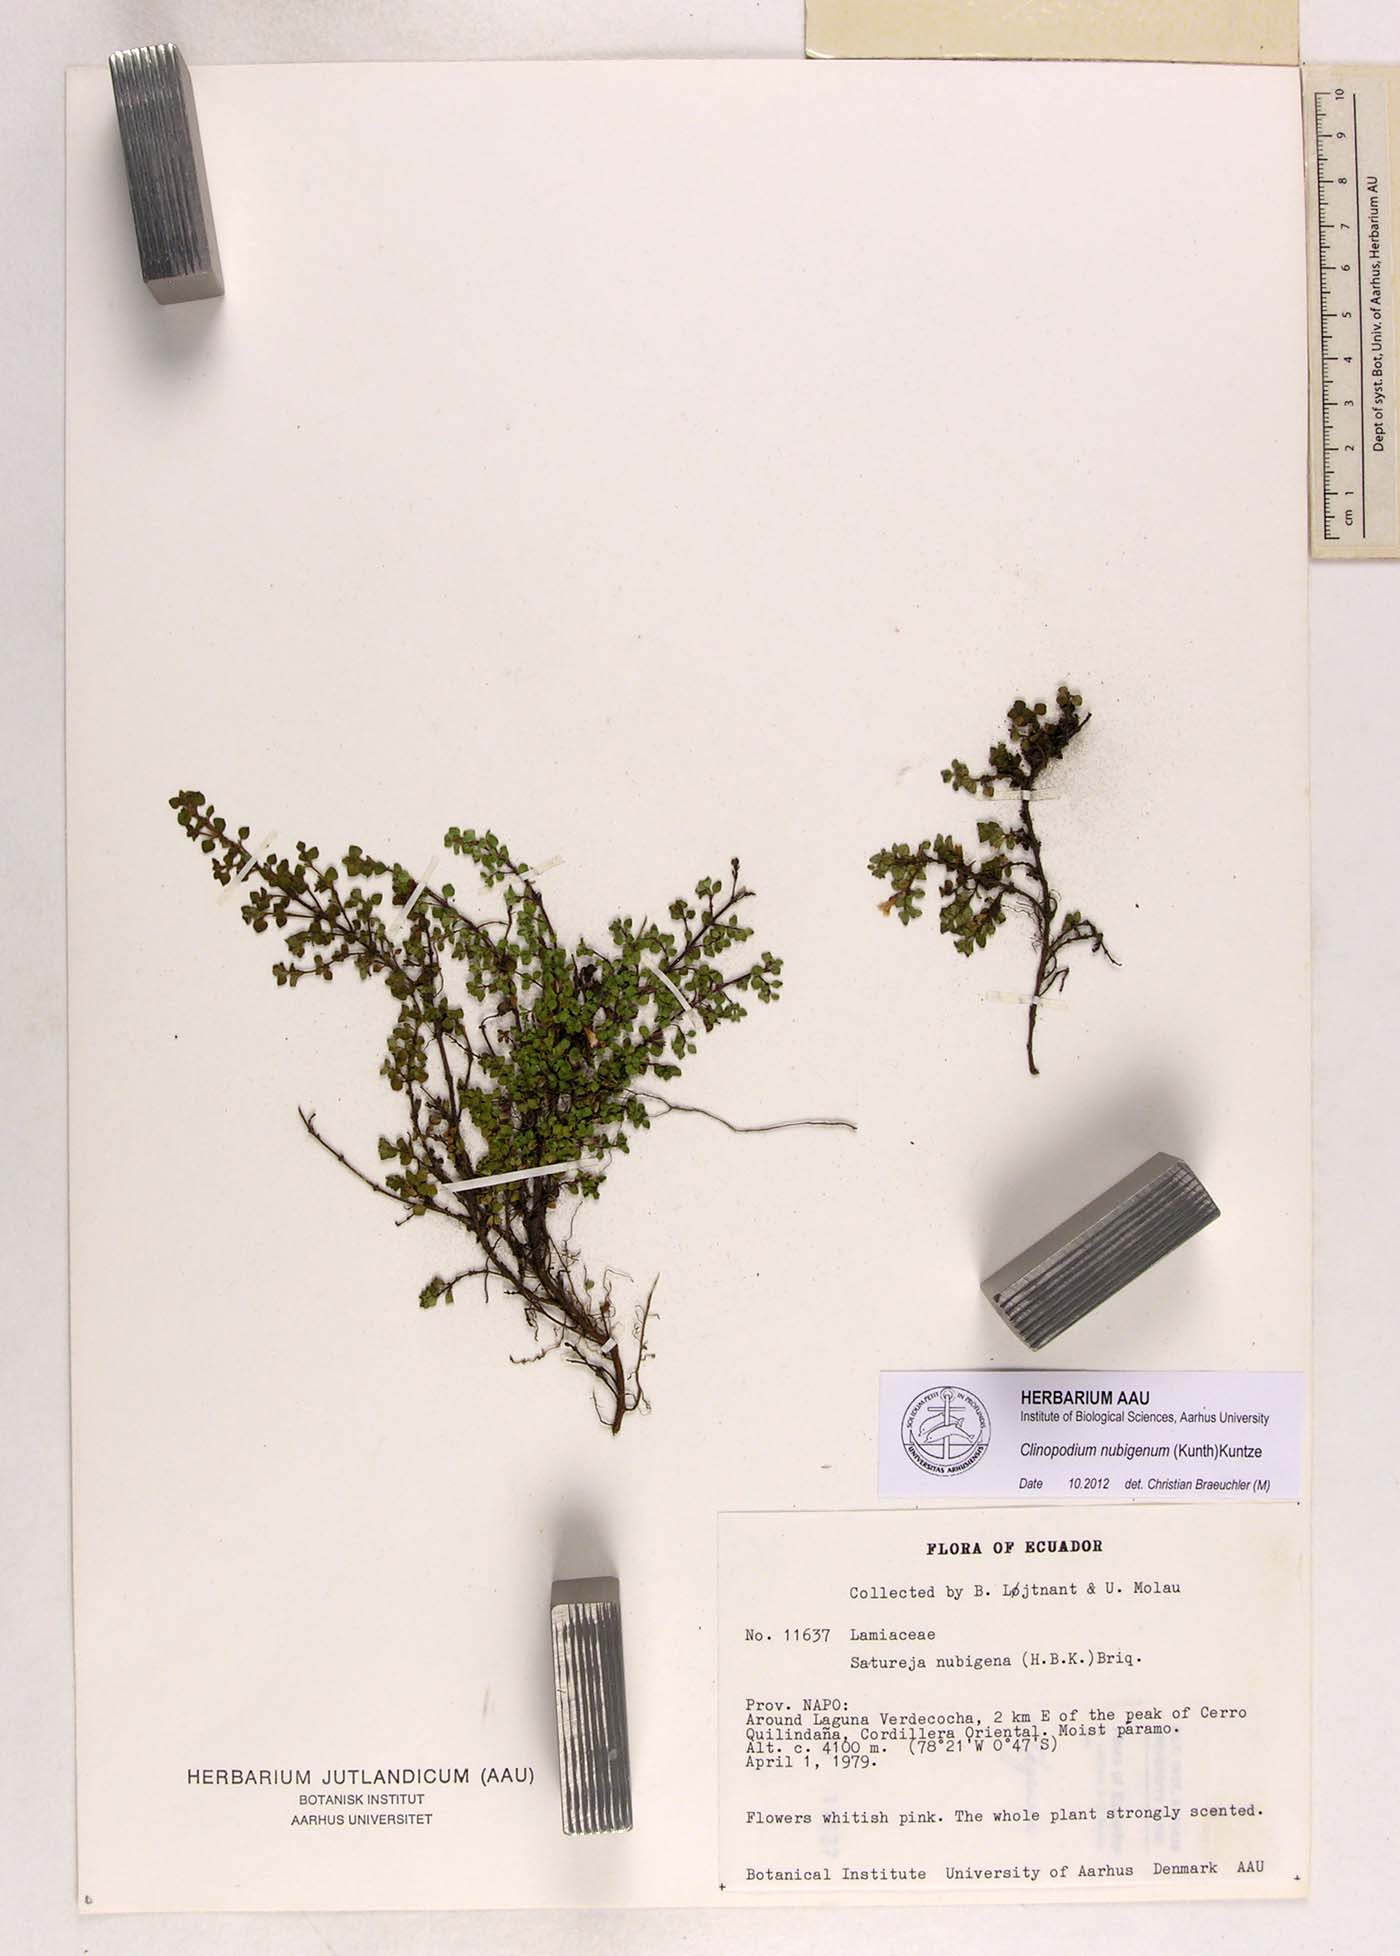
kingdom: Plantae
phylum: Tracheophyta
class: Magnoliopsida
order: Lamiales
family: Lamiaceae
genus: Clinopodium
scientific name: Clinopodium nubigenum
